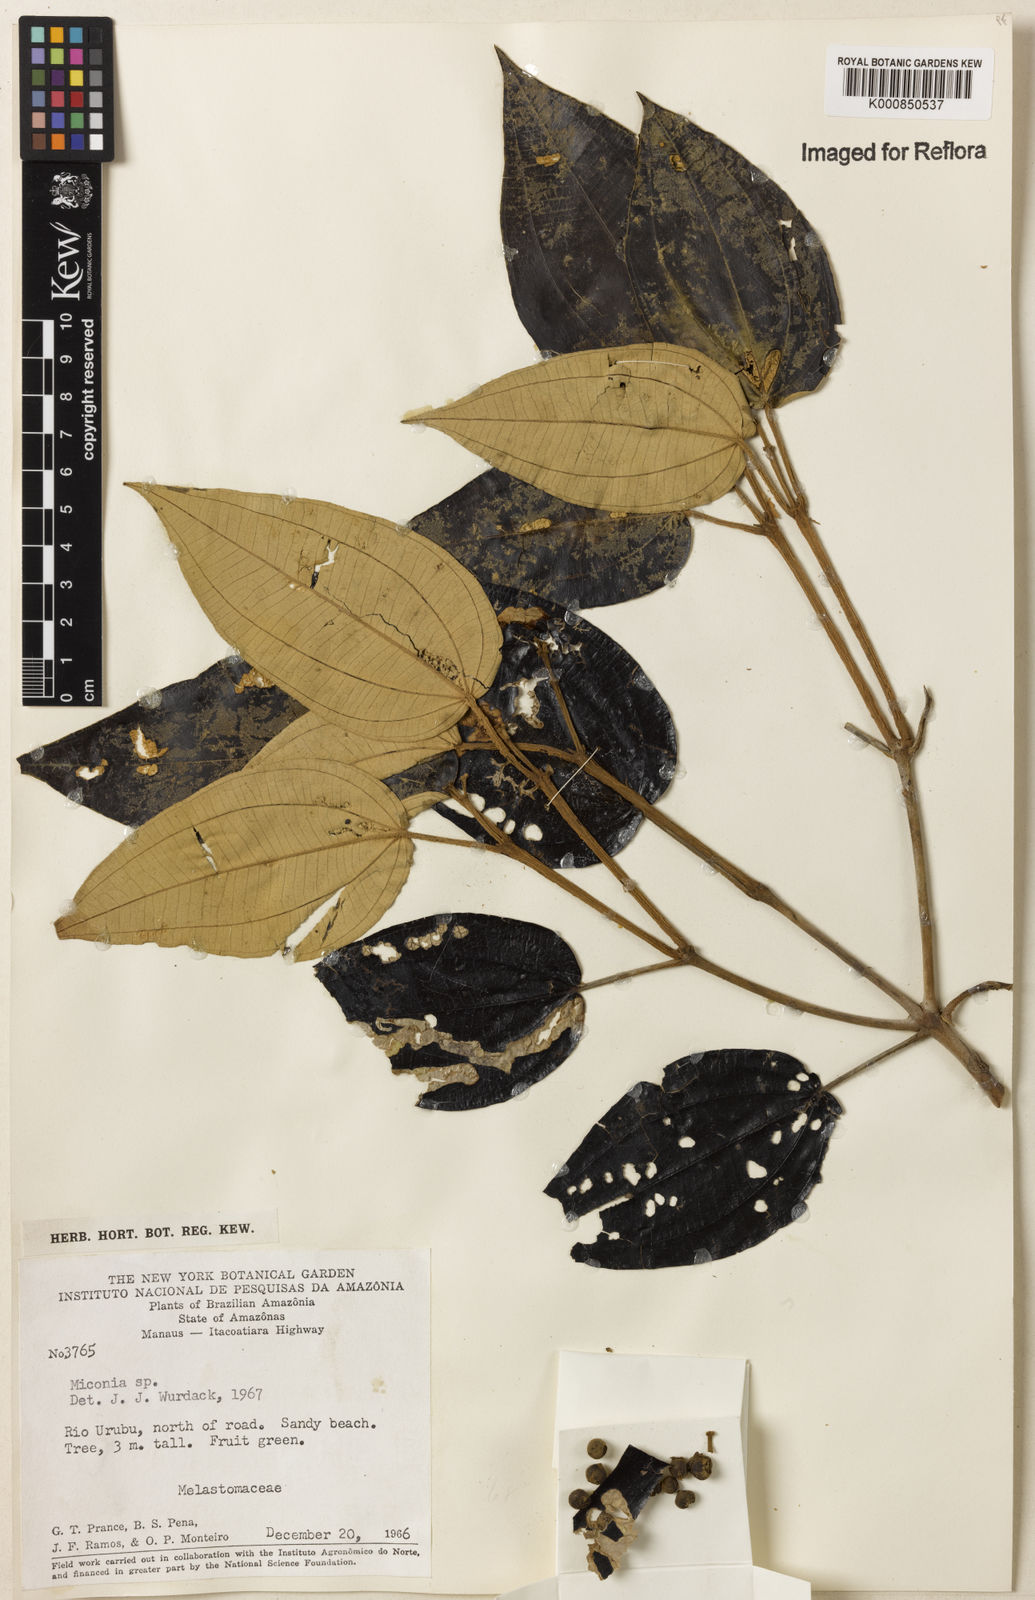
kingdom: Plantae
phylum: Tracheophyta
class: Magnoliopsida
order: Myrtales
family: Melastomataceae
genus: Miconia
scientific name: Miconia
